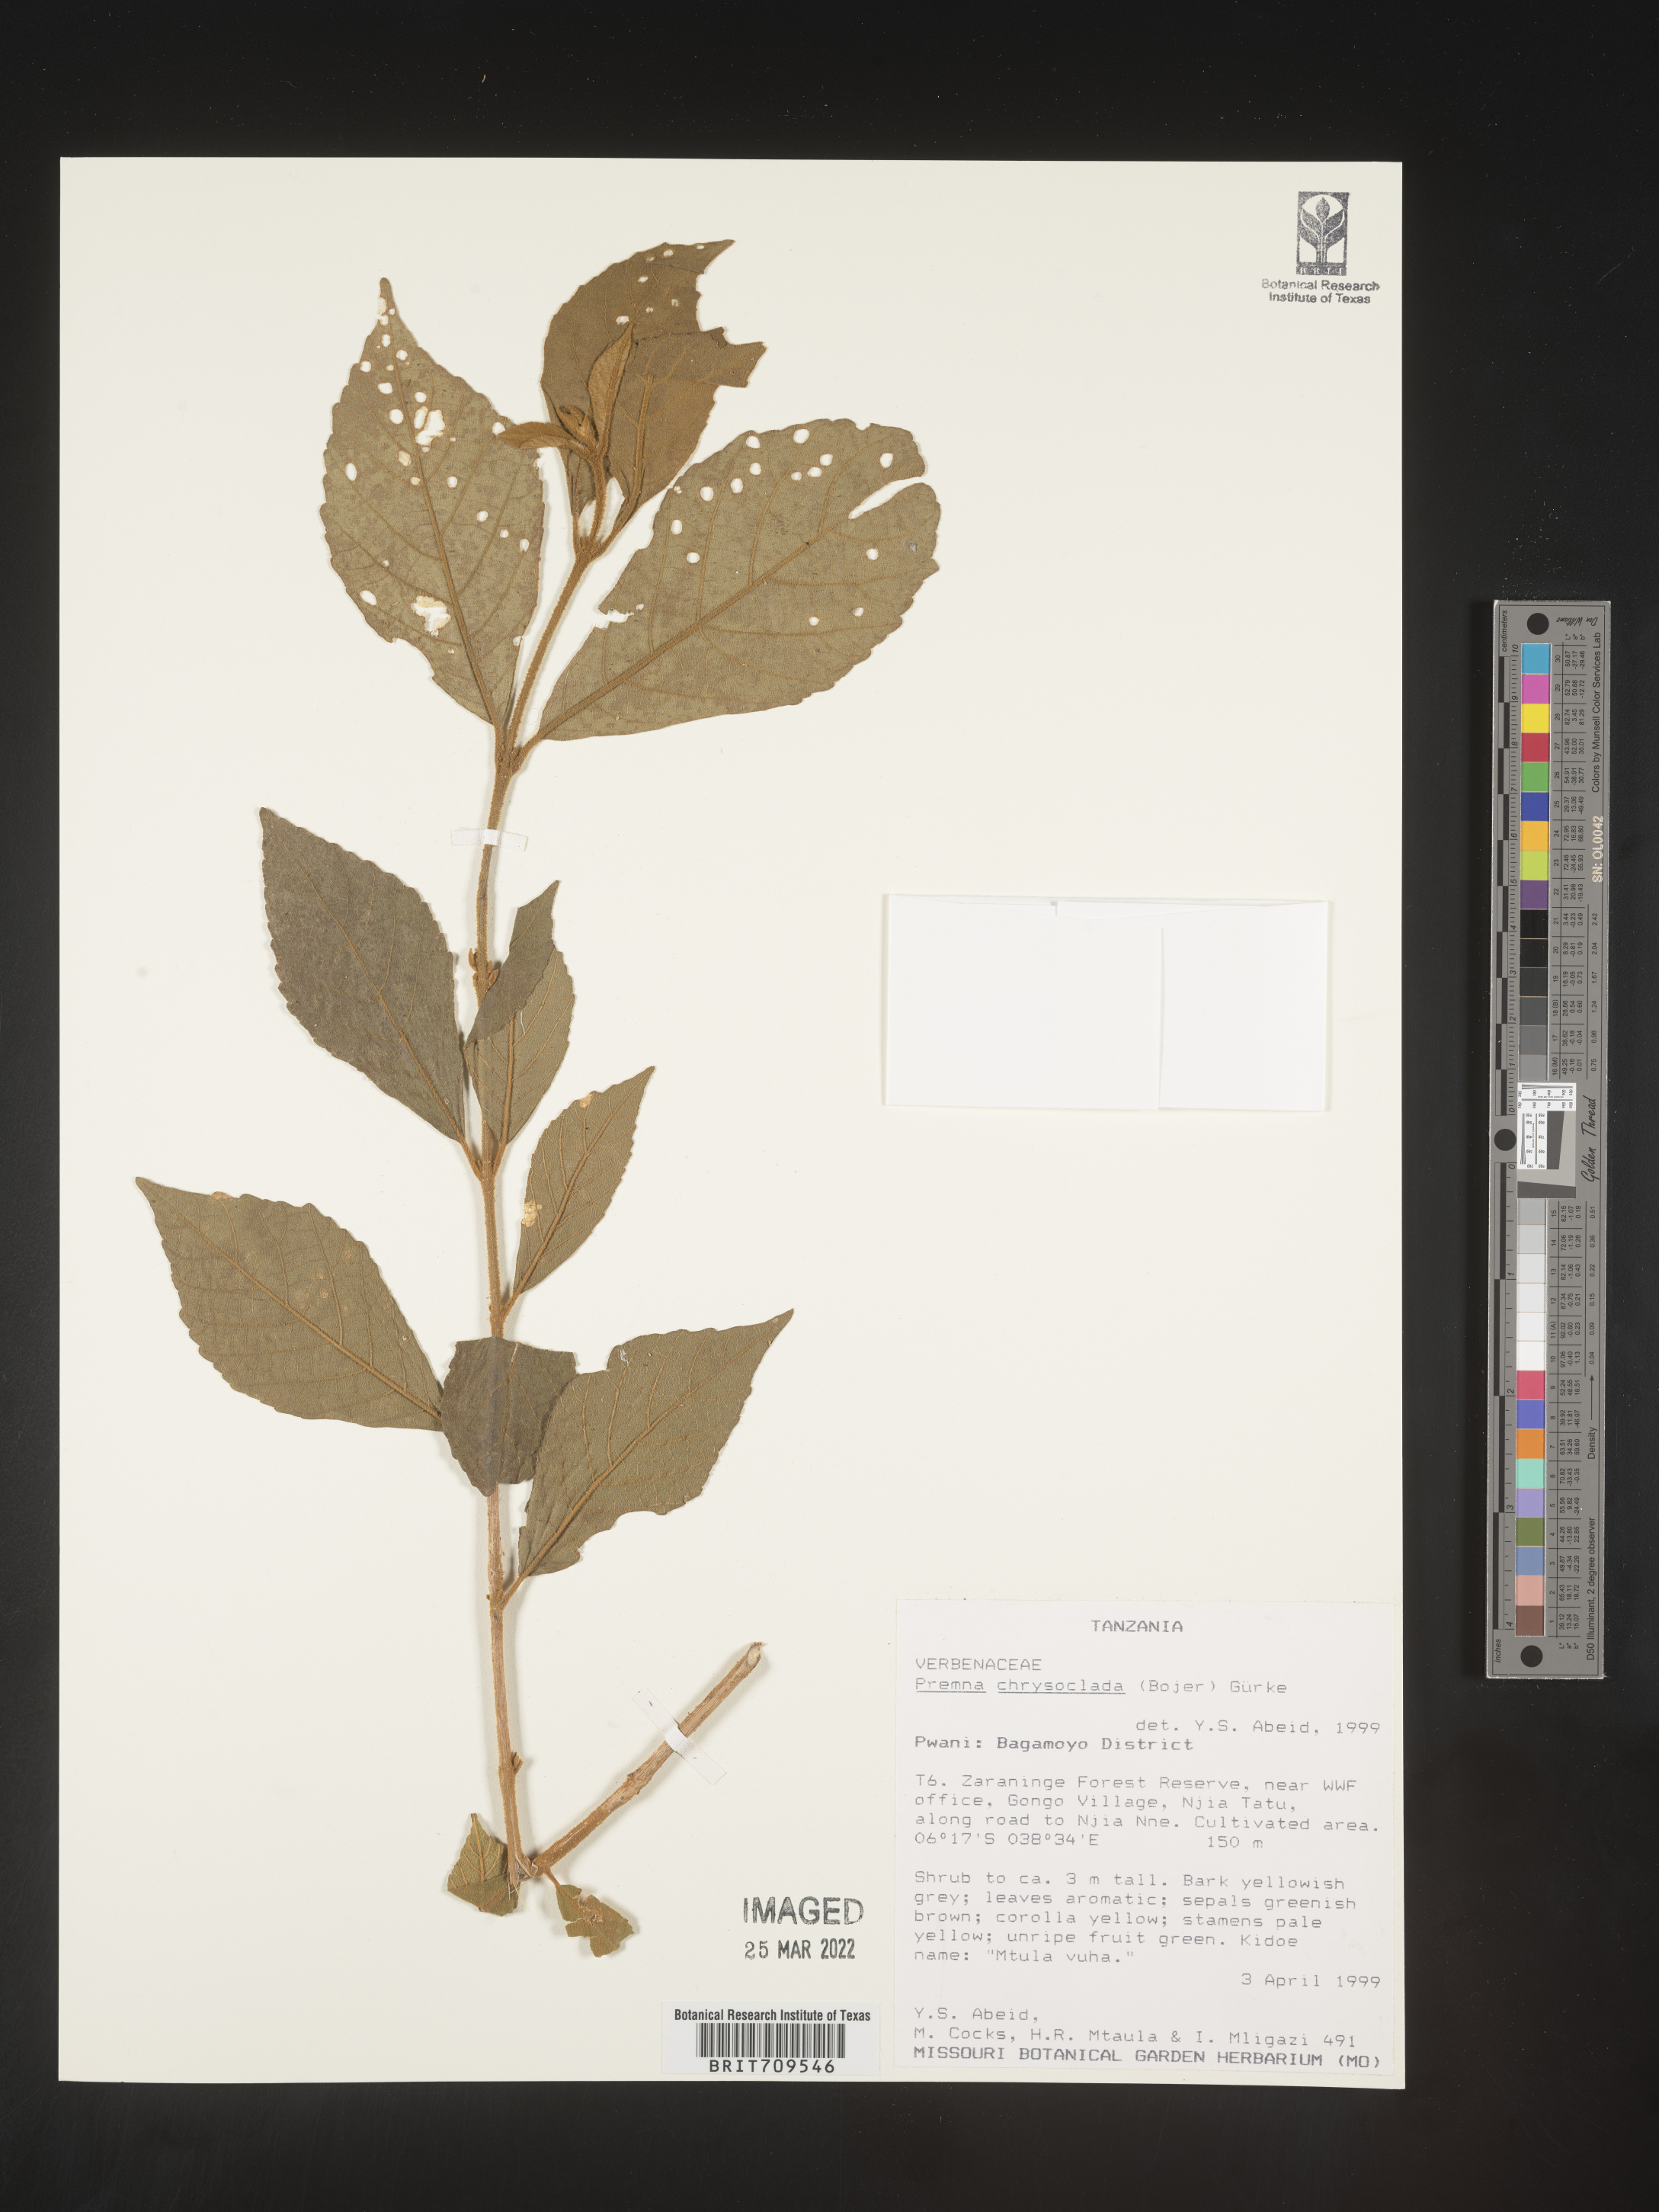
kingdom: Plantae
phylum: Tracheophyta
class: Magnoliopsida
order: Lamiales
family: Lamiaceae
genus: Premna
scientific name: Premna
